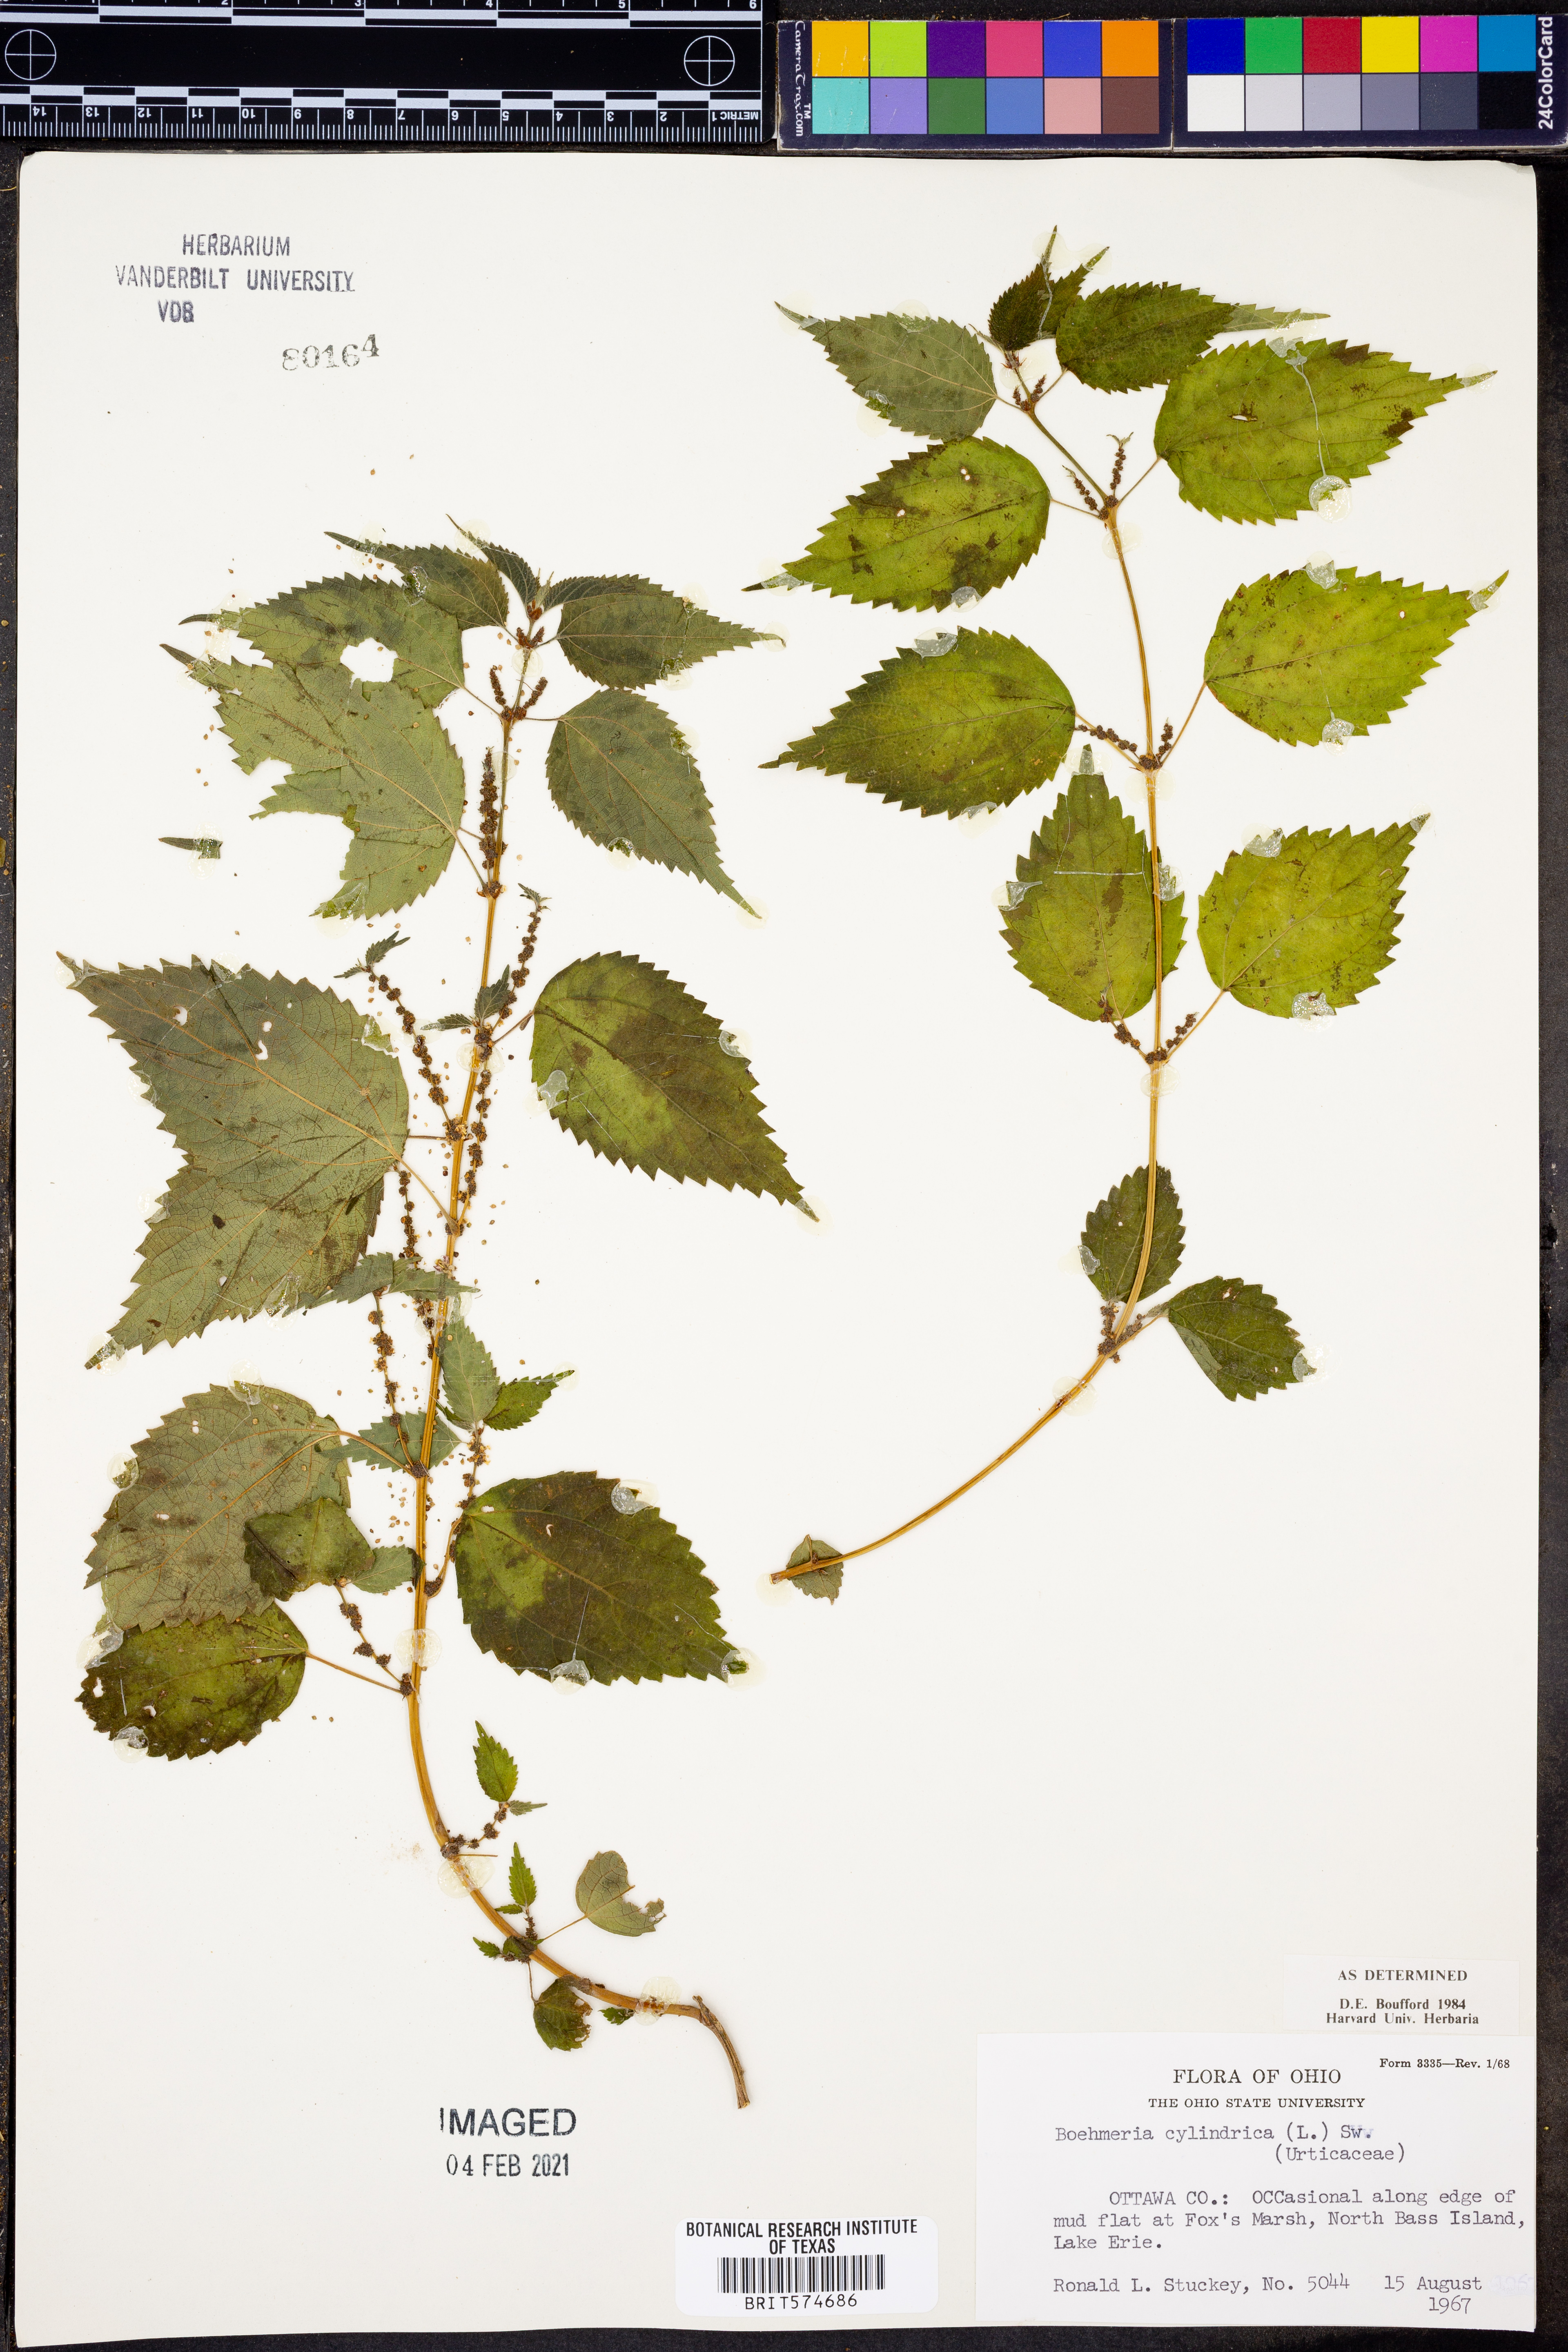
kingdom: Plantae
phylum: Tracheophyta
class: Magnoliopsida
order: Rosales
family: Urticaceae
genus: Boehmeria
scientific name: Boehmeria cylindrica
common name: Bog-hemp
